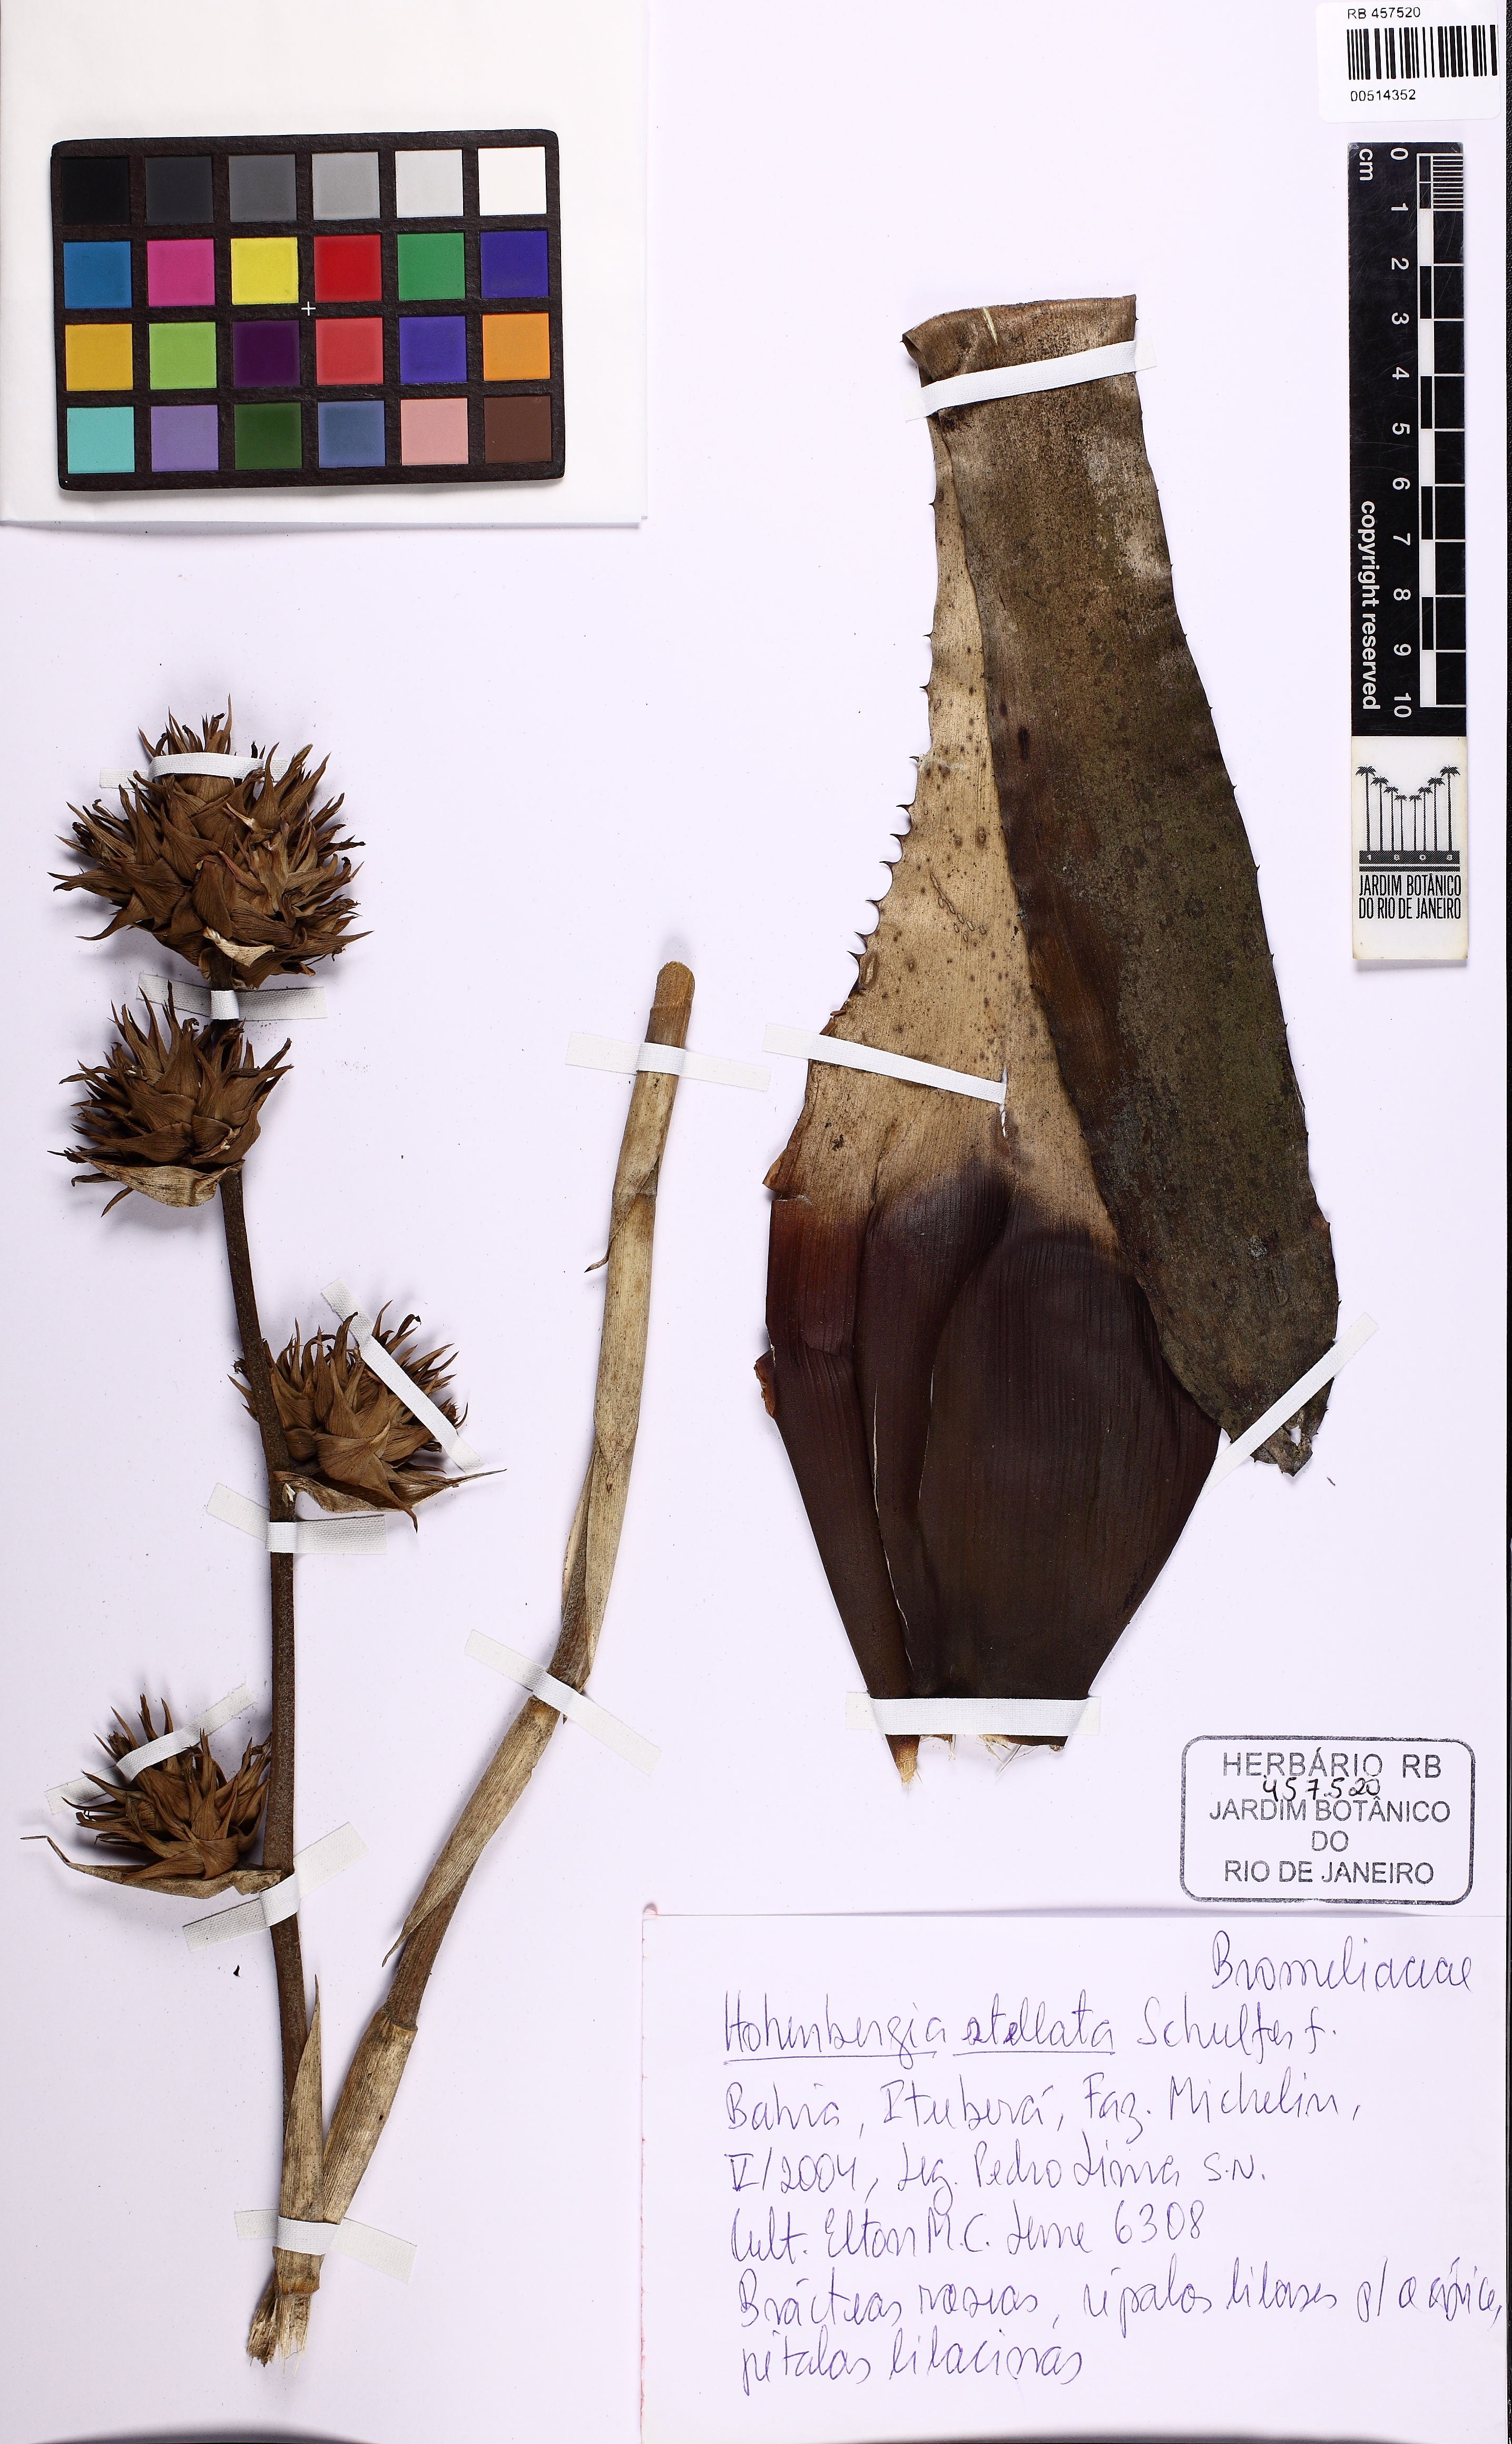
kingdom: Plantae
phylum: Tracheophyta
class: Liliopsida
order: Poales
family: Bromeliaceae
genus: Hohenbergia
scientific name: Hohenbergia stellata
